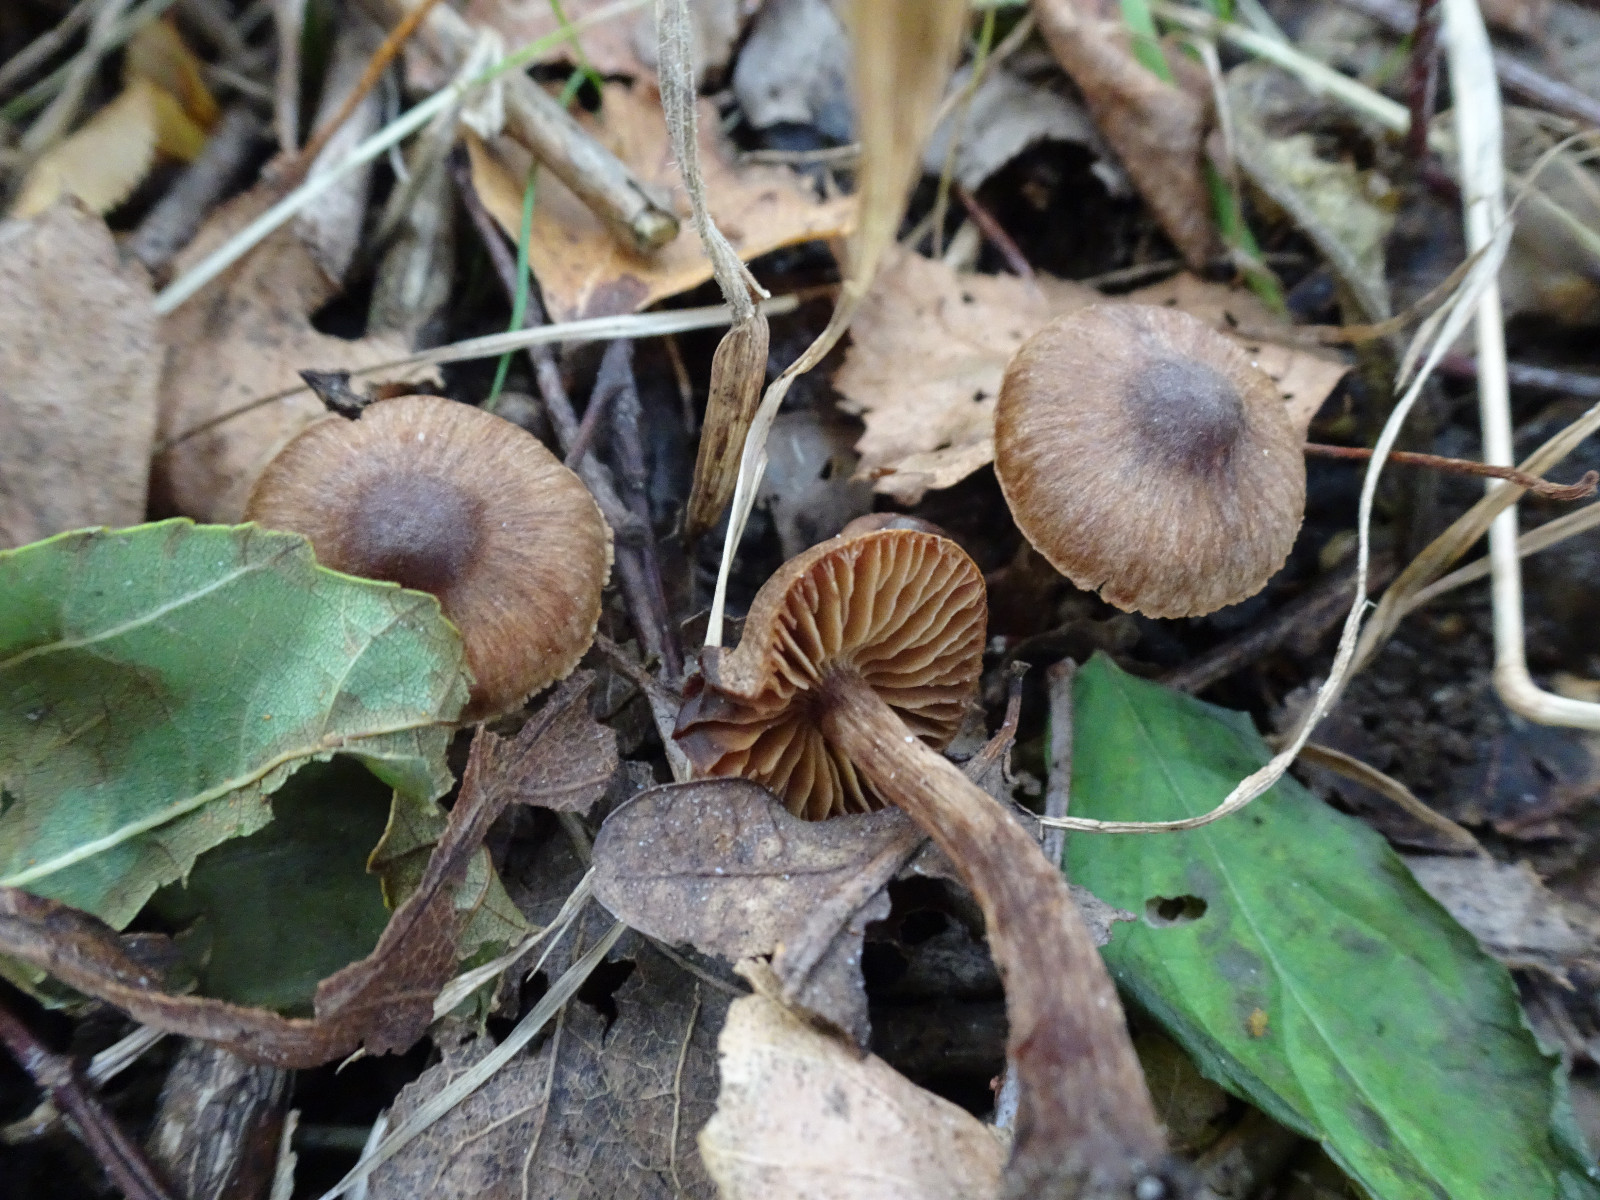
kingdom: Fungi
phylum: Basidiomycota
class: Agaricomycetes
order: Agaricales
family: Cortinariaceae
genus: Cortinarius
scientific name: Cortinarius
